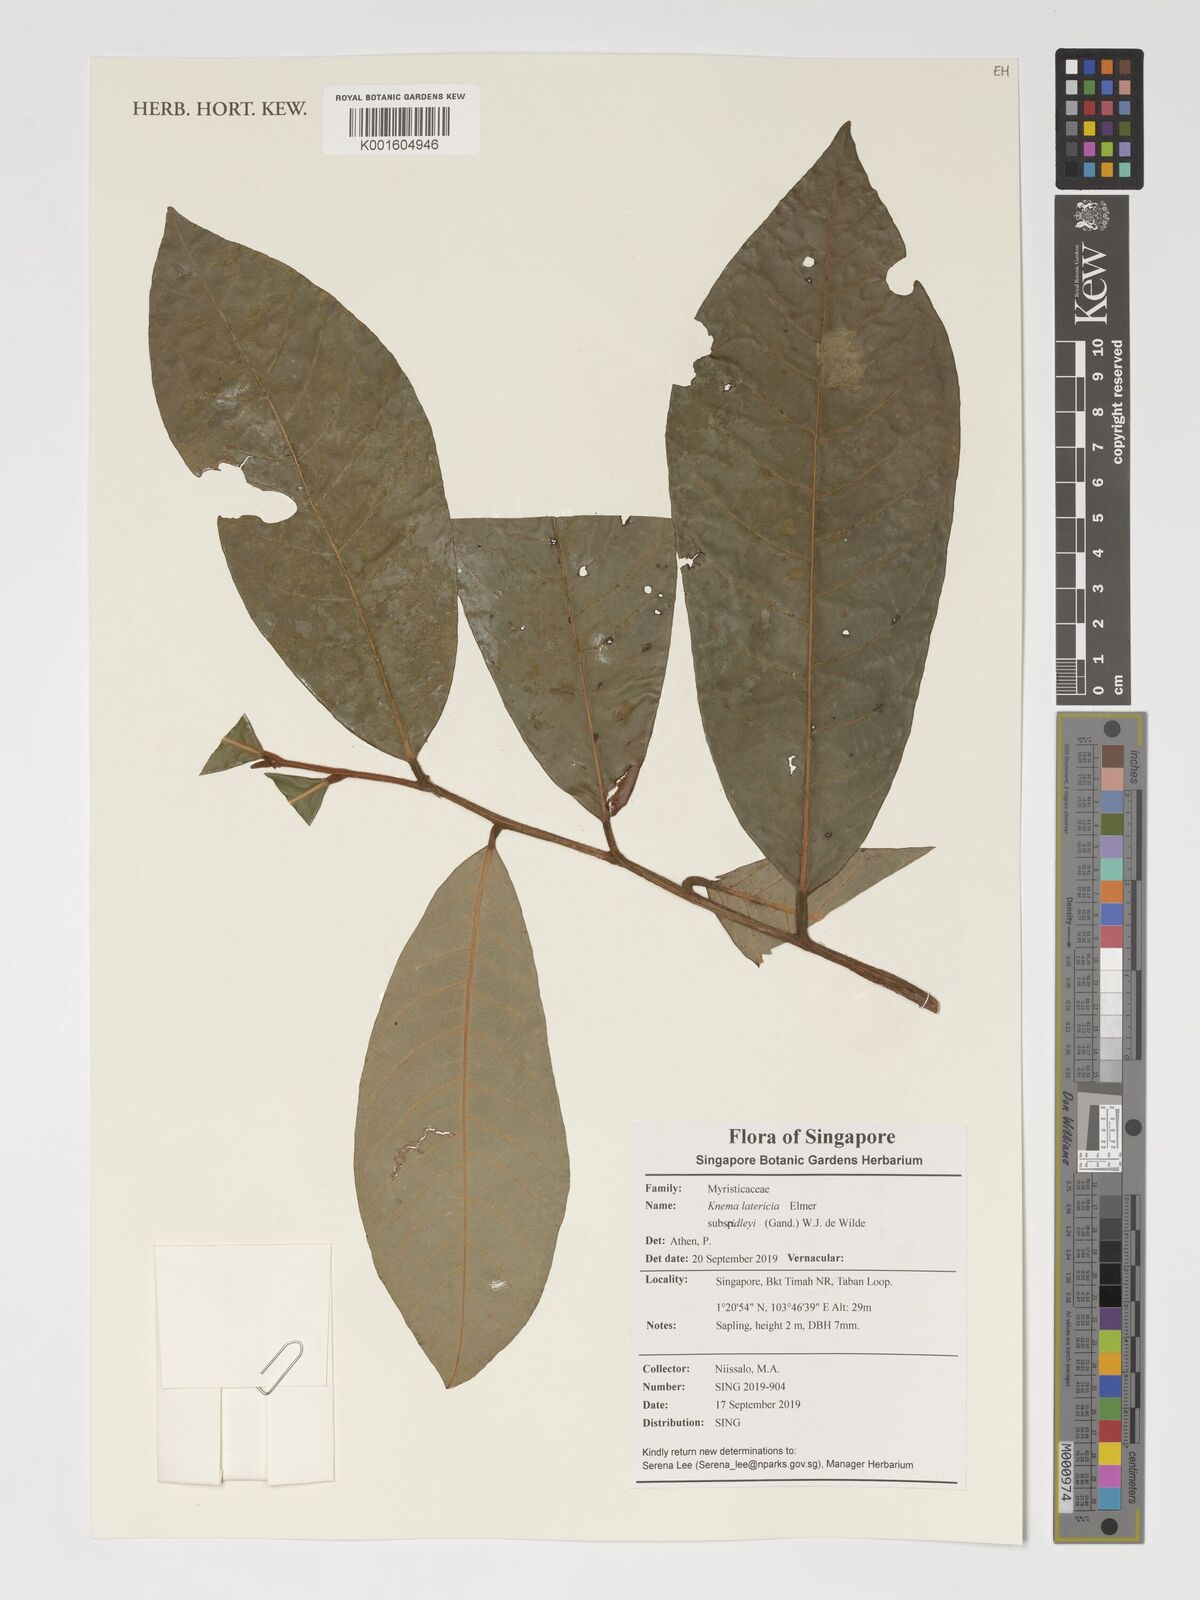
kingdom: Plantae
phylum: Tracheophyta
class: Magnoliopsida
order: Magnoliales
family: Myristicaceae
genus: Knema
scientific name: Knema latericia
